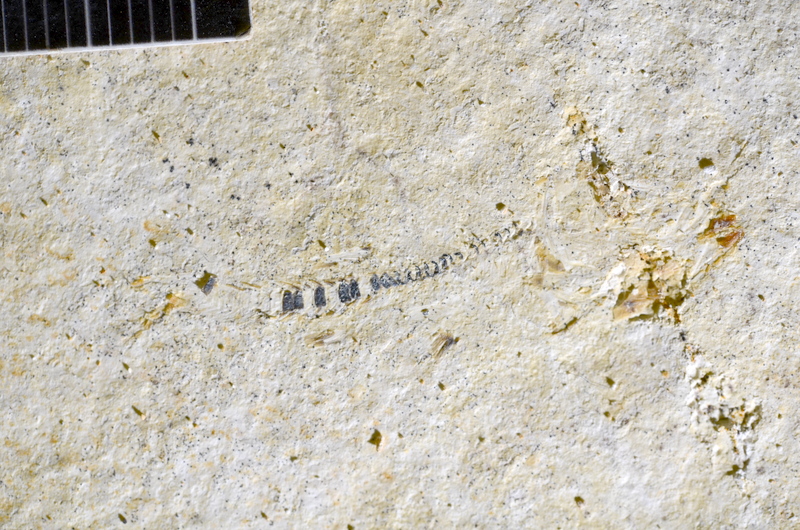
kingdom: Animalia
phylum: Chordata
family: Ascalaboidae
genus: Ebertichthys
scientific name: Ebertichthys ettlingensis
